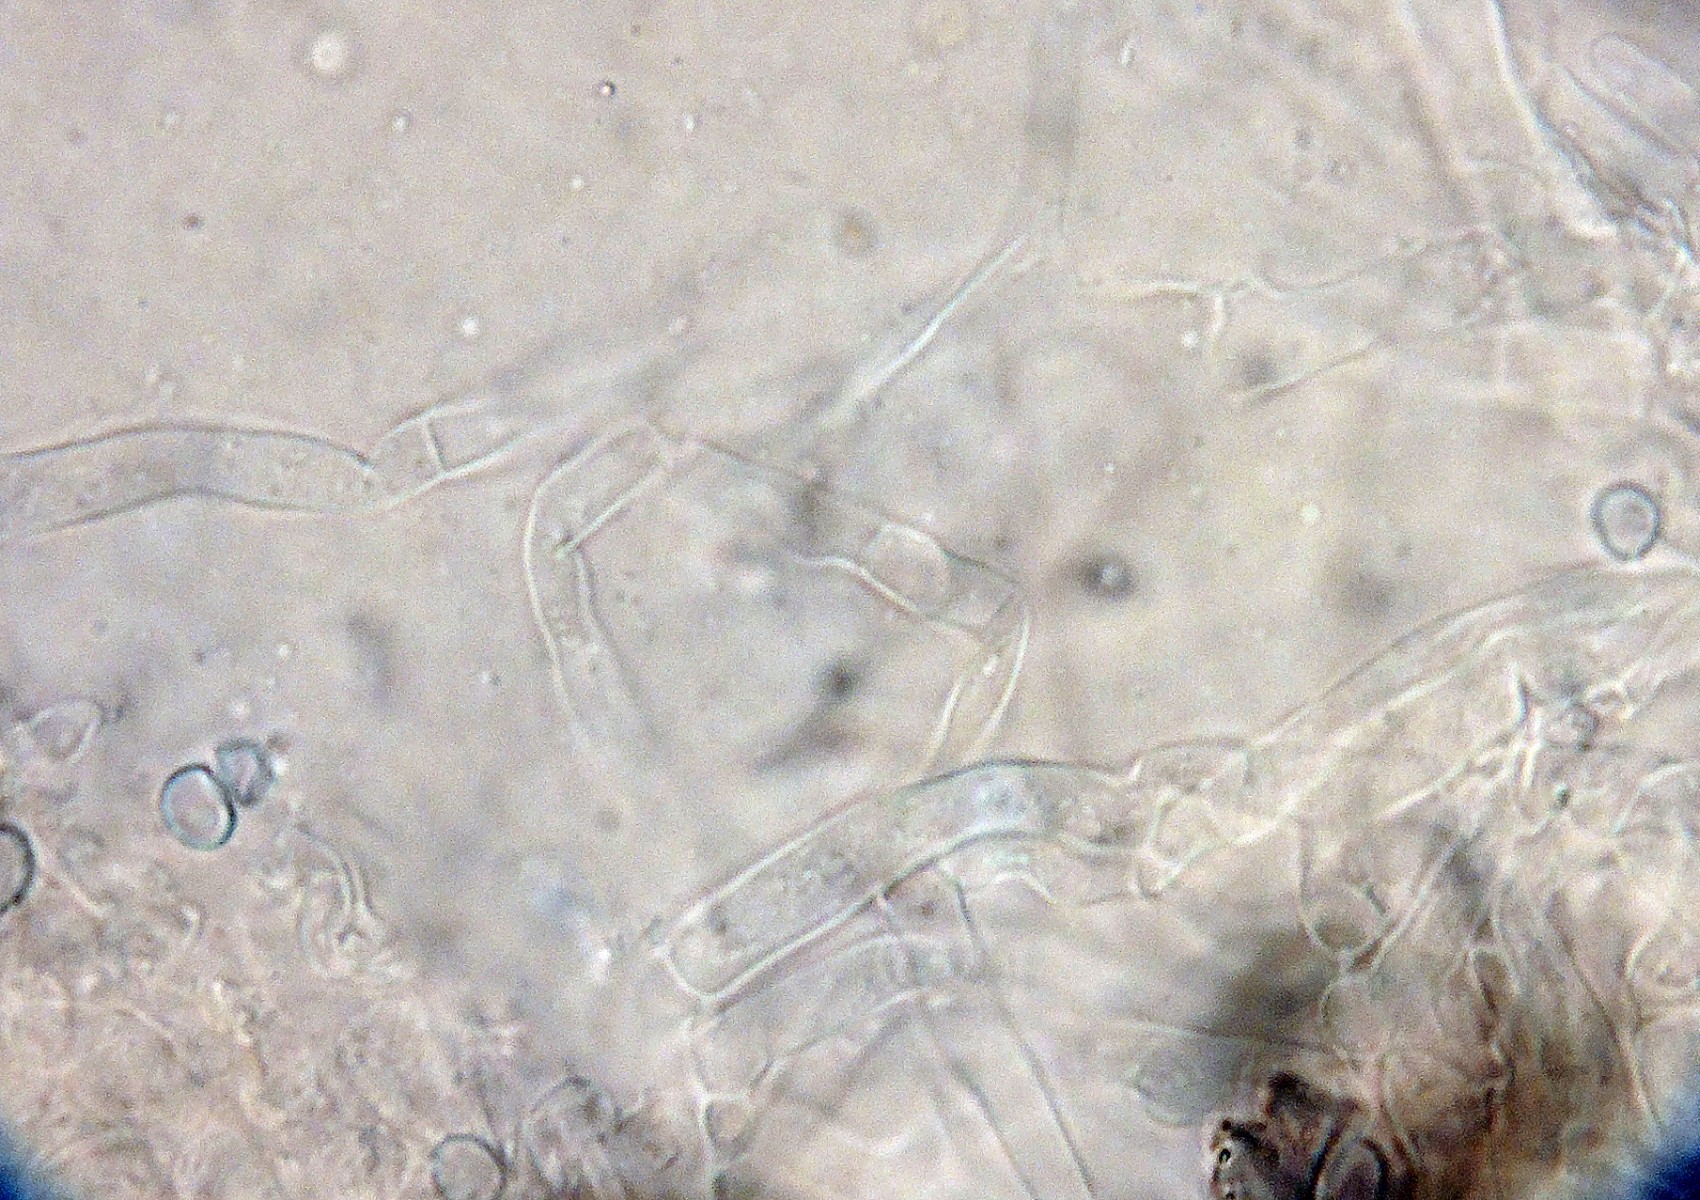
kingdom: Fungi
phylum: Basidiomycota
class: Agaricomycetes
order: Agaricales
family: Stephanosporaceae
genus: Cristinia
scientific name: Cristinia rhenana
